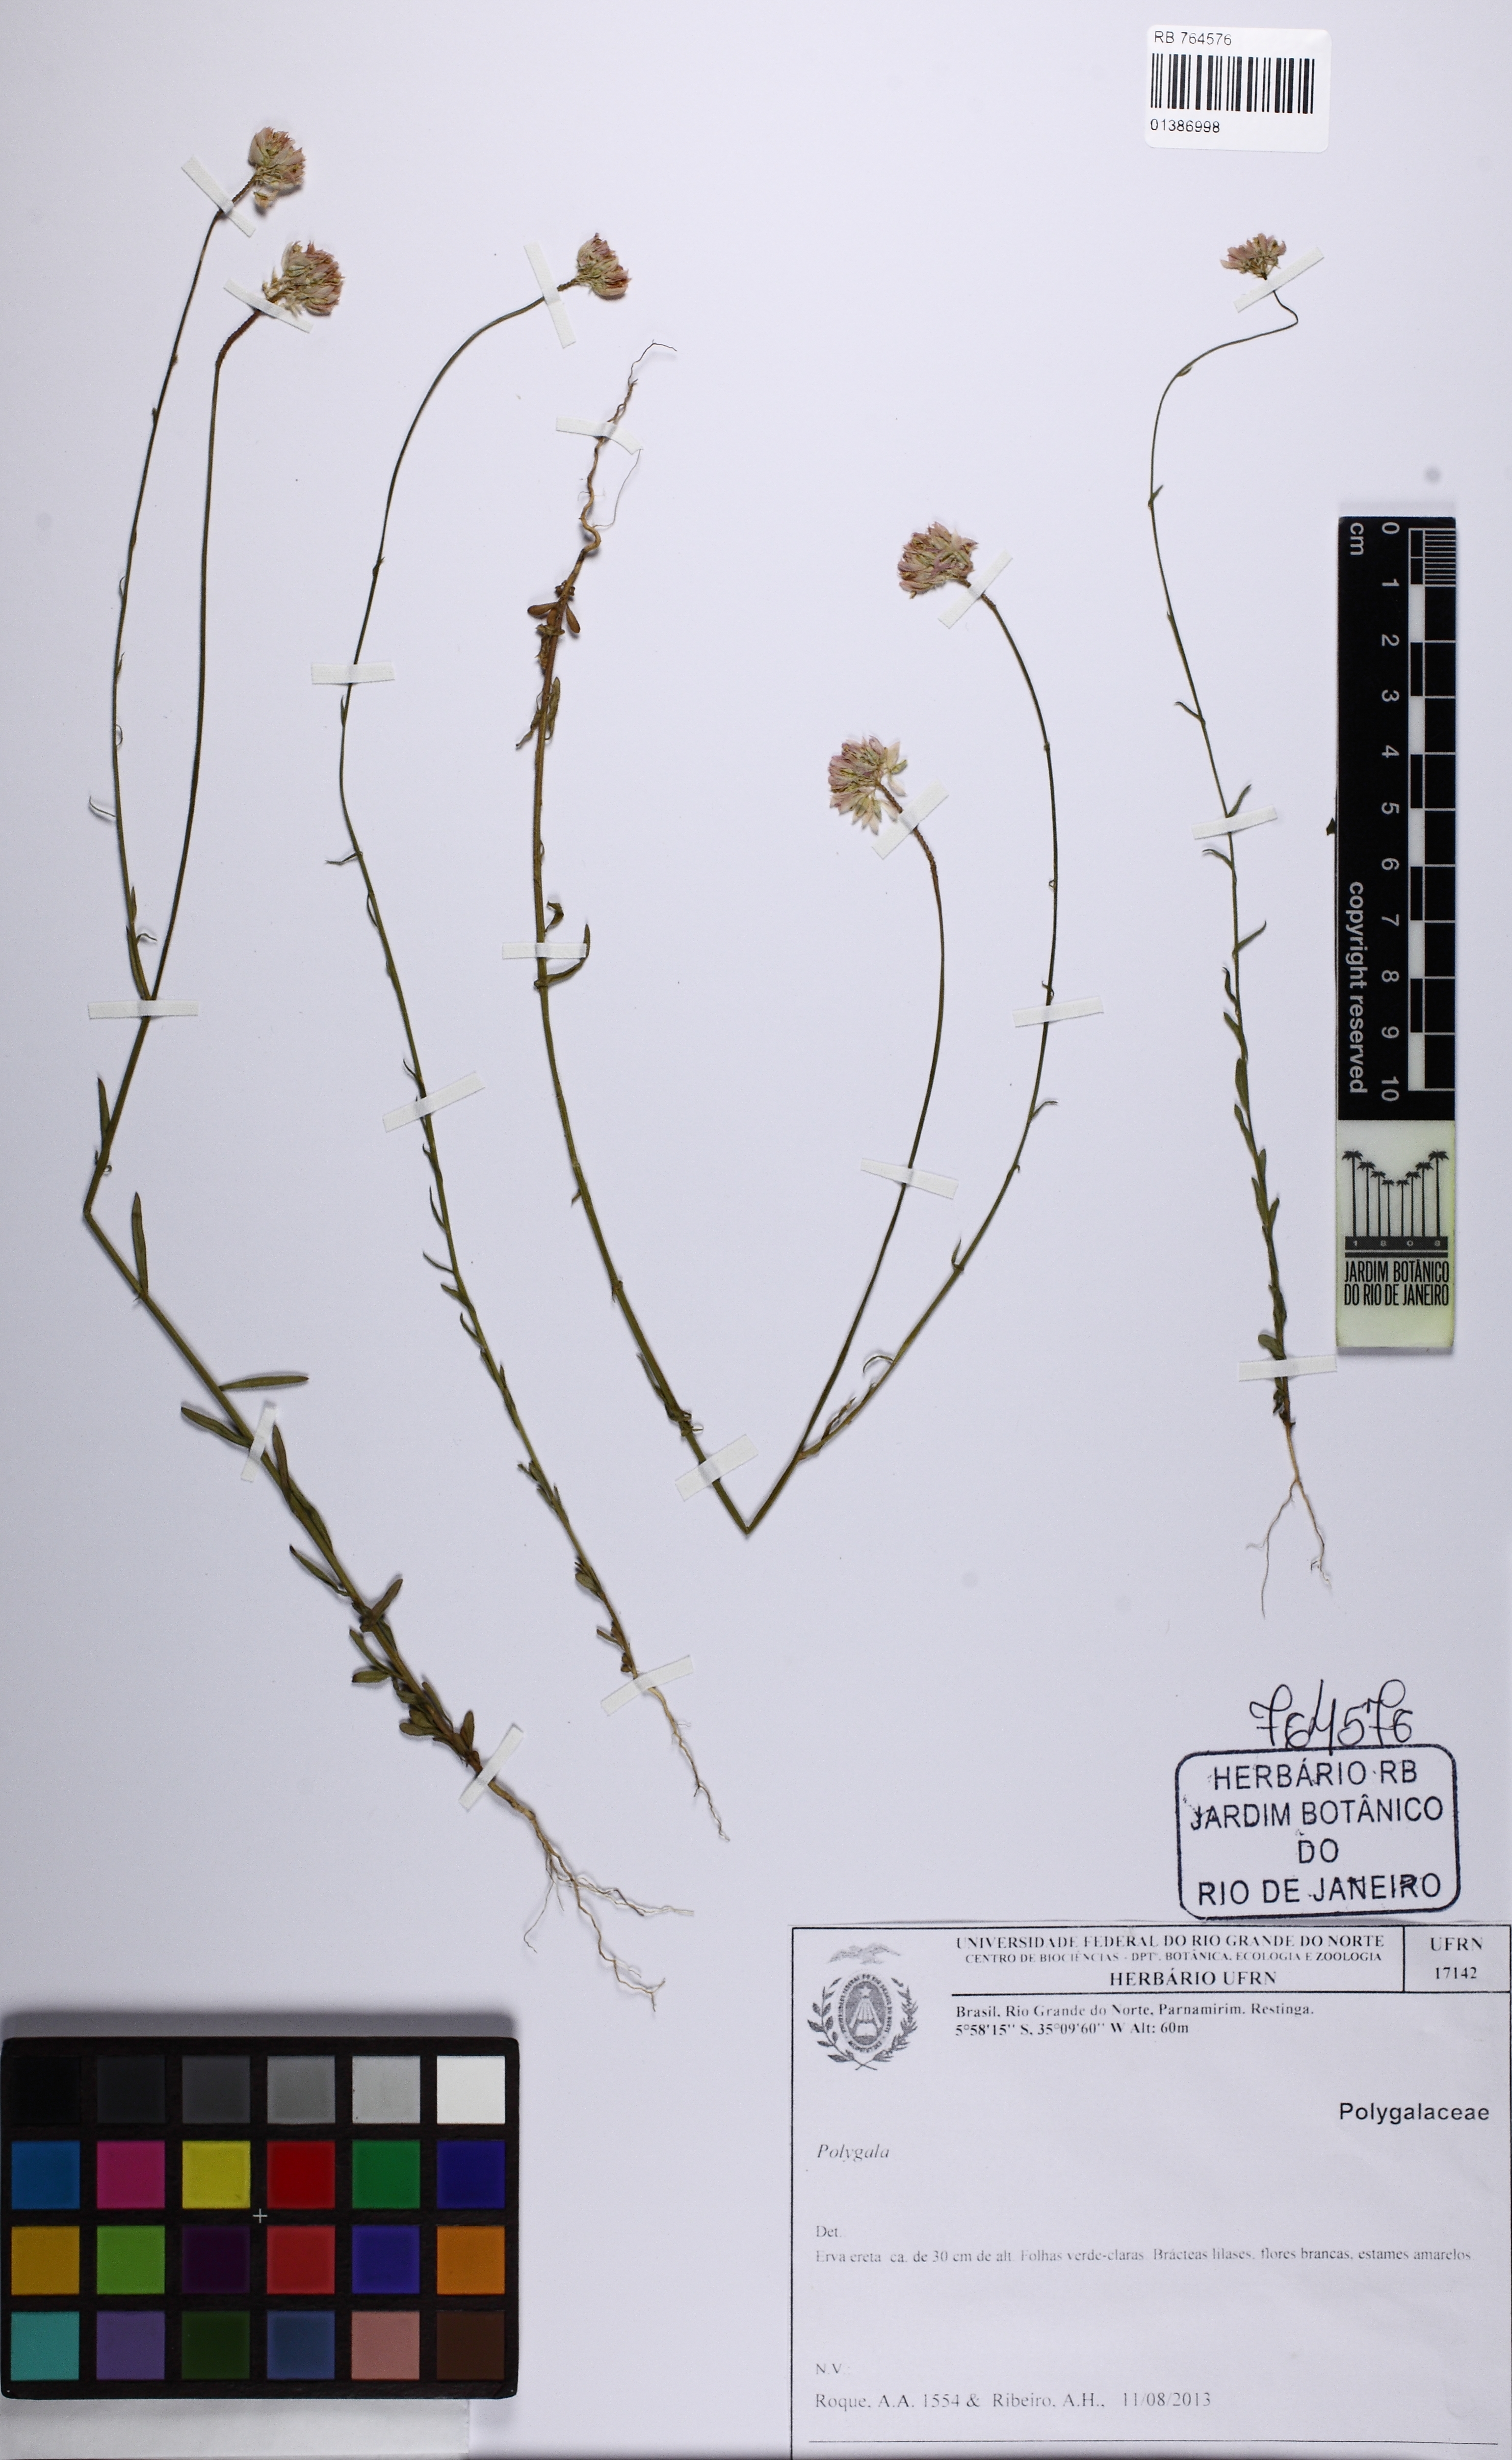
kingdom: Plantae
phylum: Tracheophyta
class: Magnoliopsida
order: Fabales
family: Polygalaceae
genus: Polygala
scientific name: Polygala
